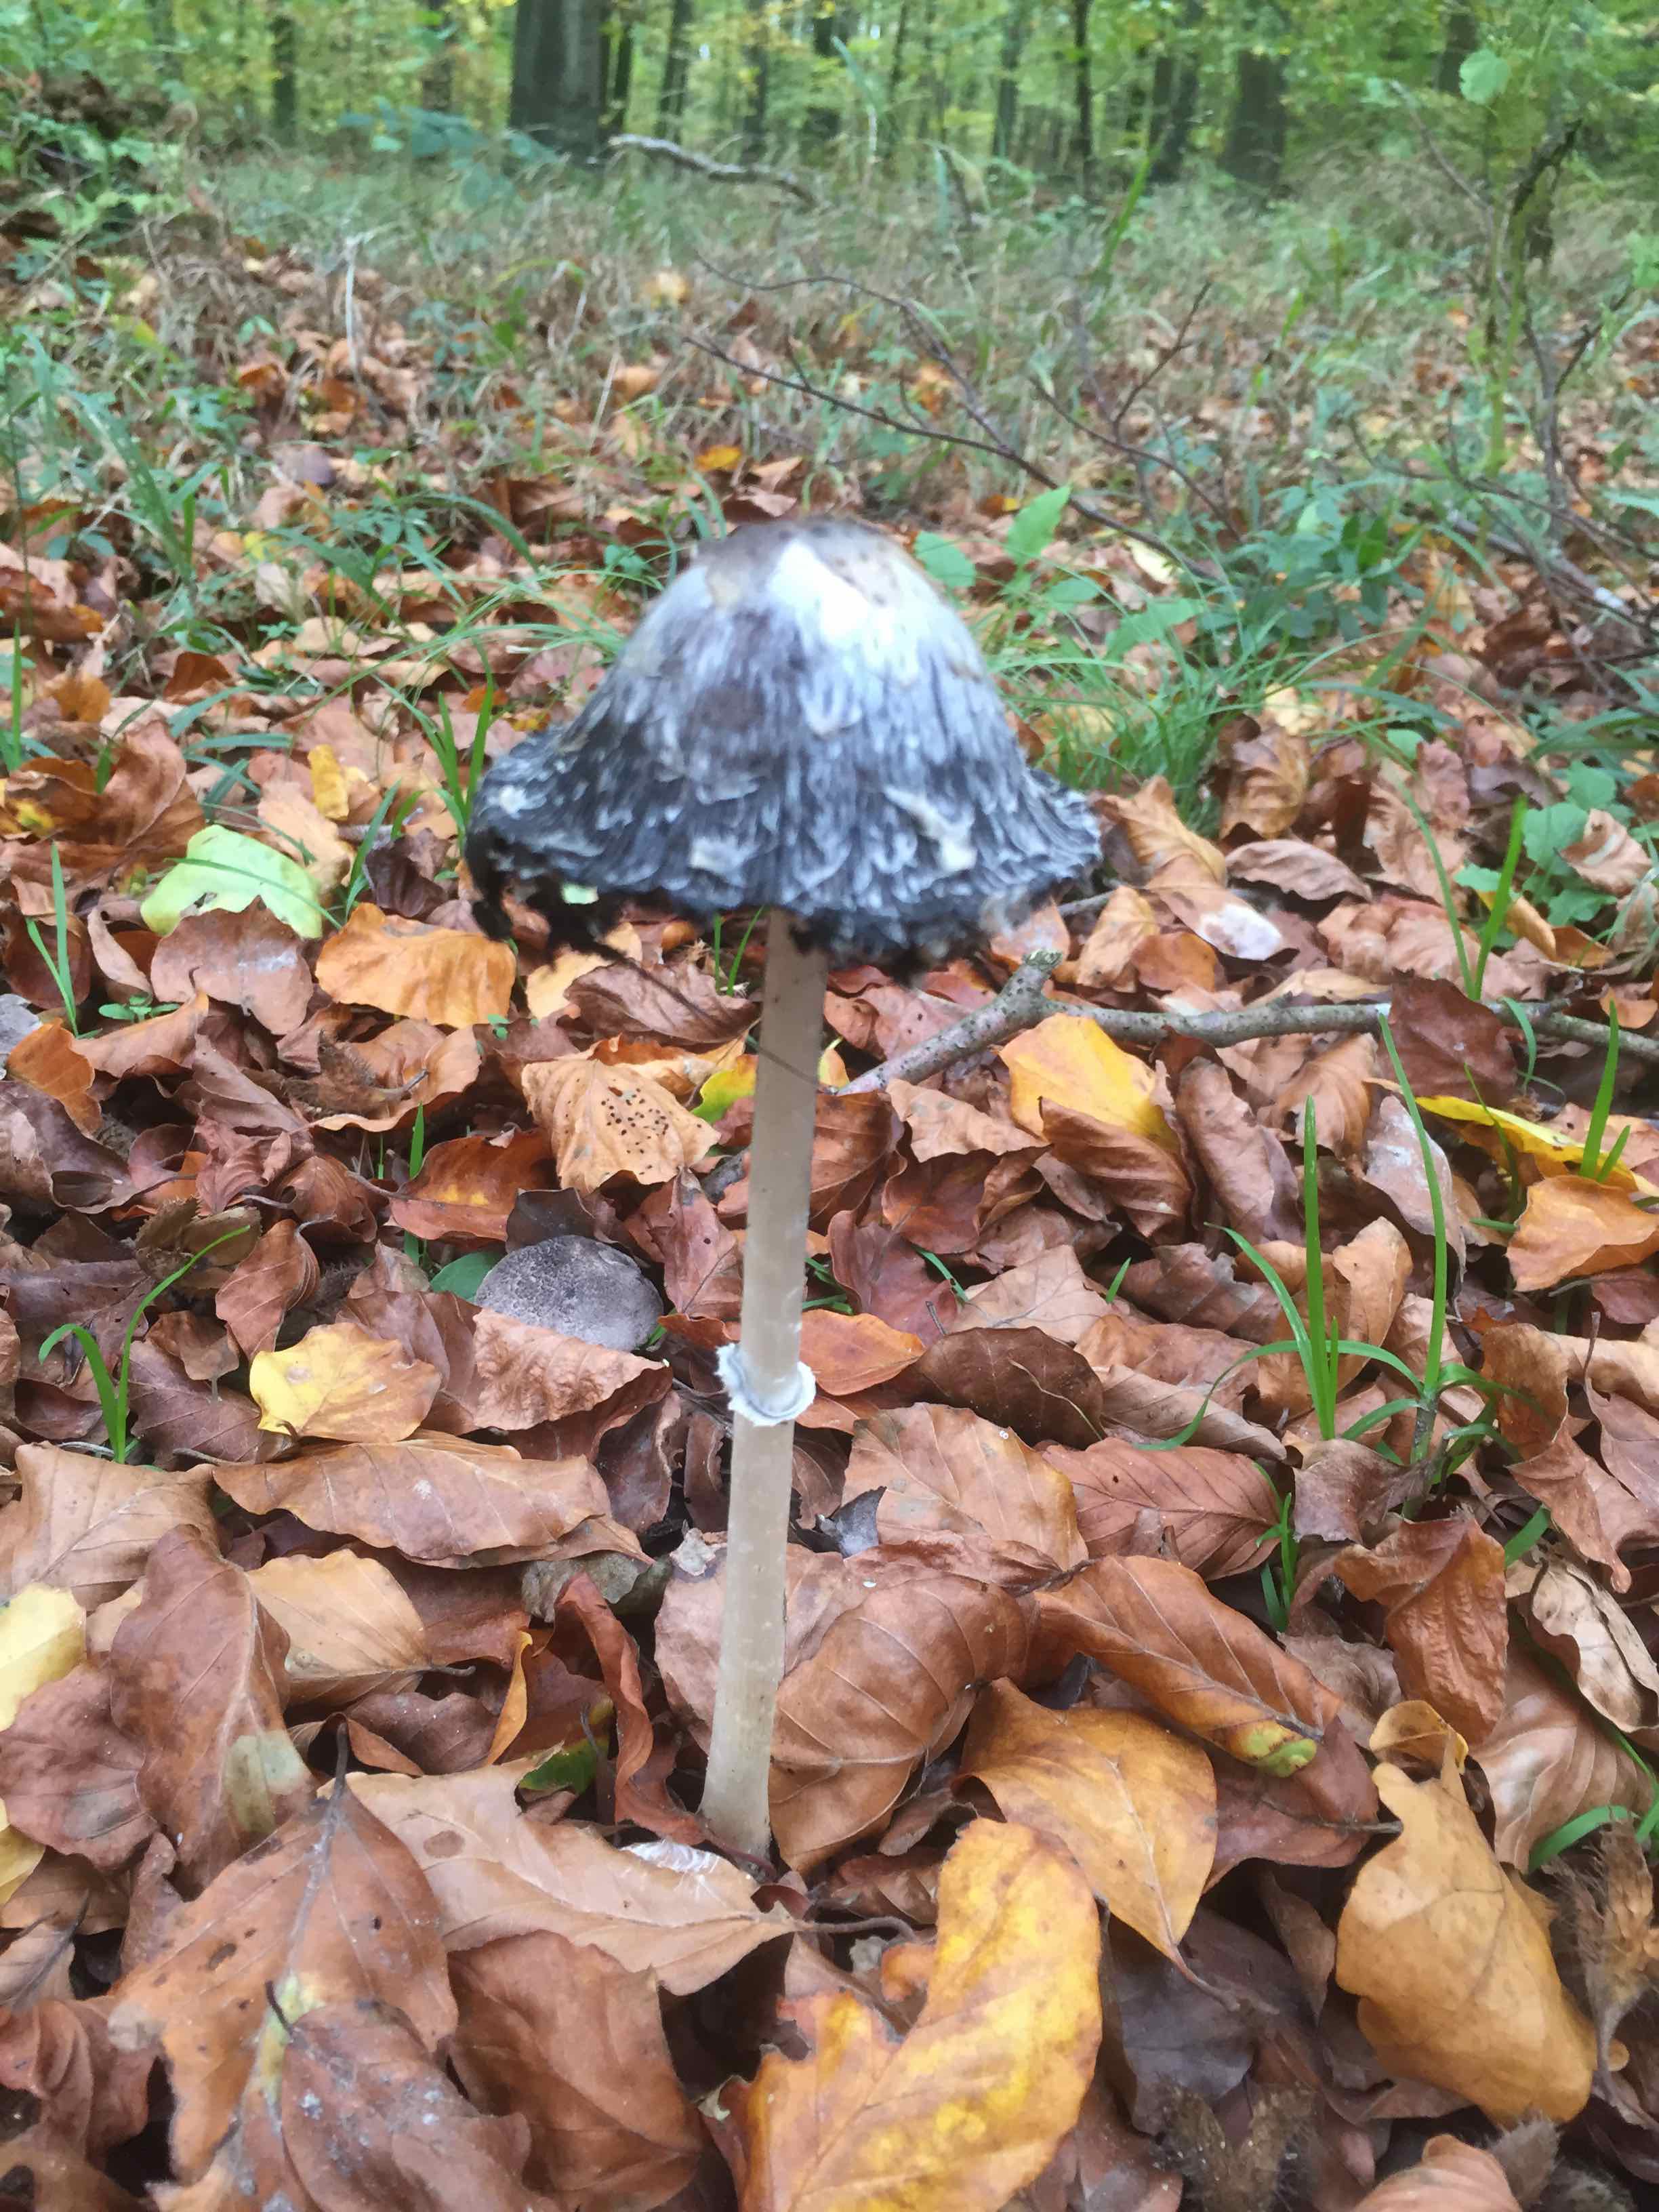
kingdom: Fungi
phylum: Basidiomycota
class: Agaricomycetes
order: Agaricales
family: Agaricaceae
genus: Coprinus
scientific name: Coprinus comatus
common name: stor parykhat
